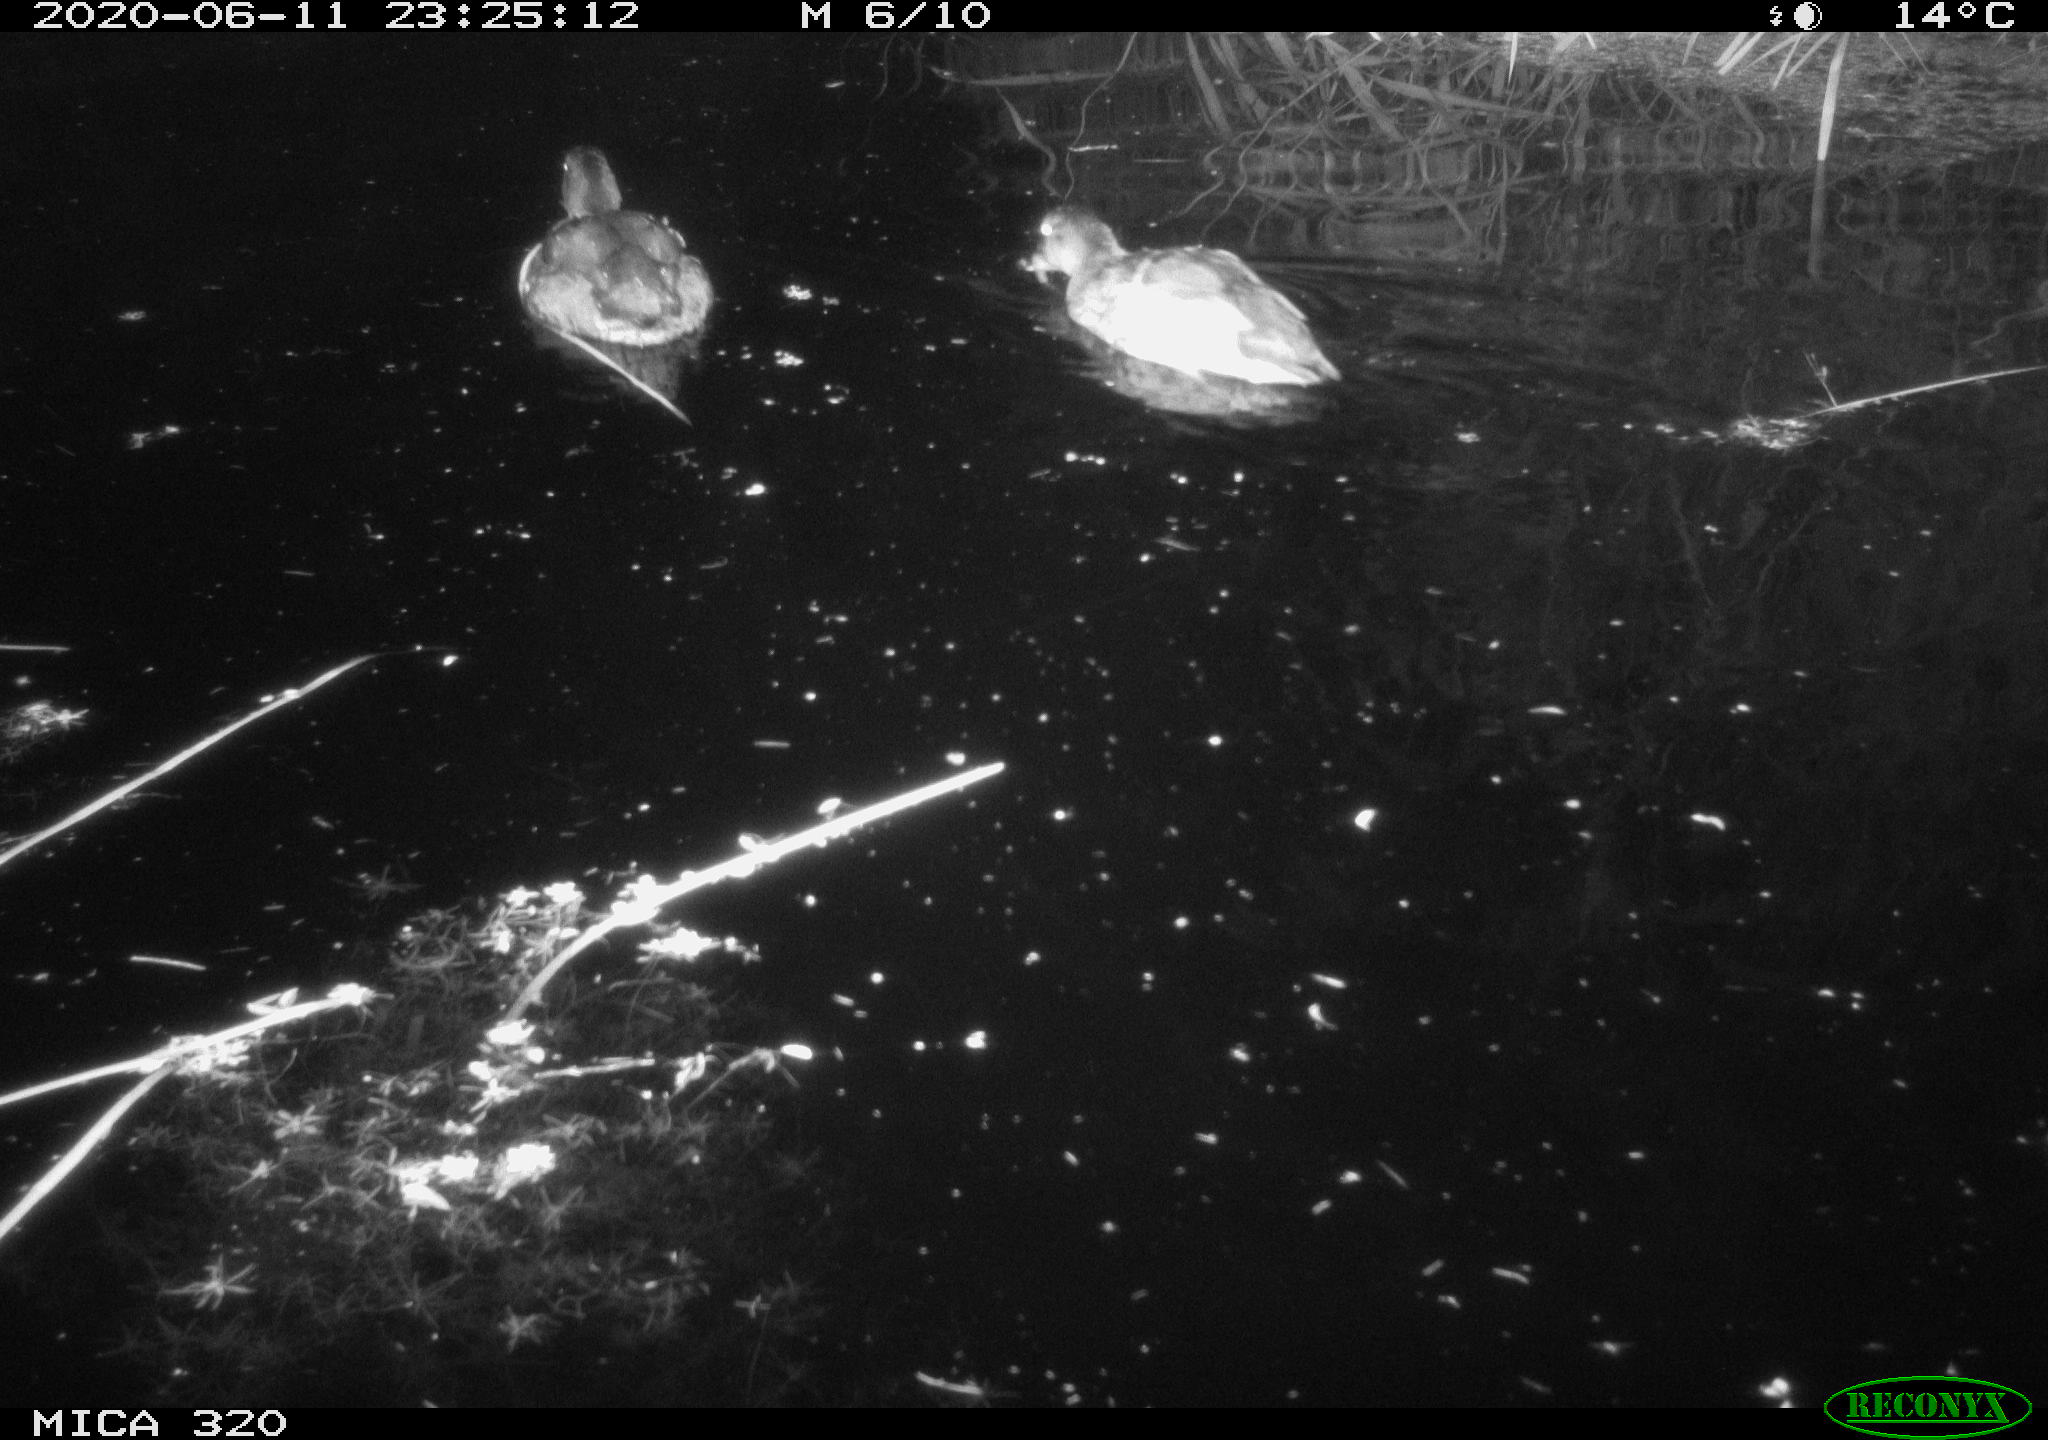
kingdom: Animalia
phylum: Chordata
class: Aves
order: Anseriformes
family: Anatidae
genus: Anas
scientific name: Anas platyrhynchos
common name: Mallard
